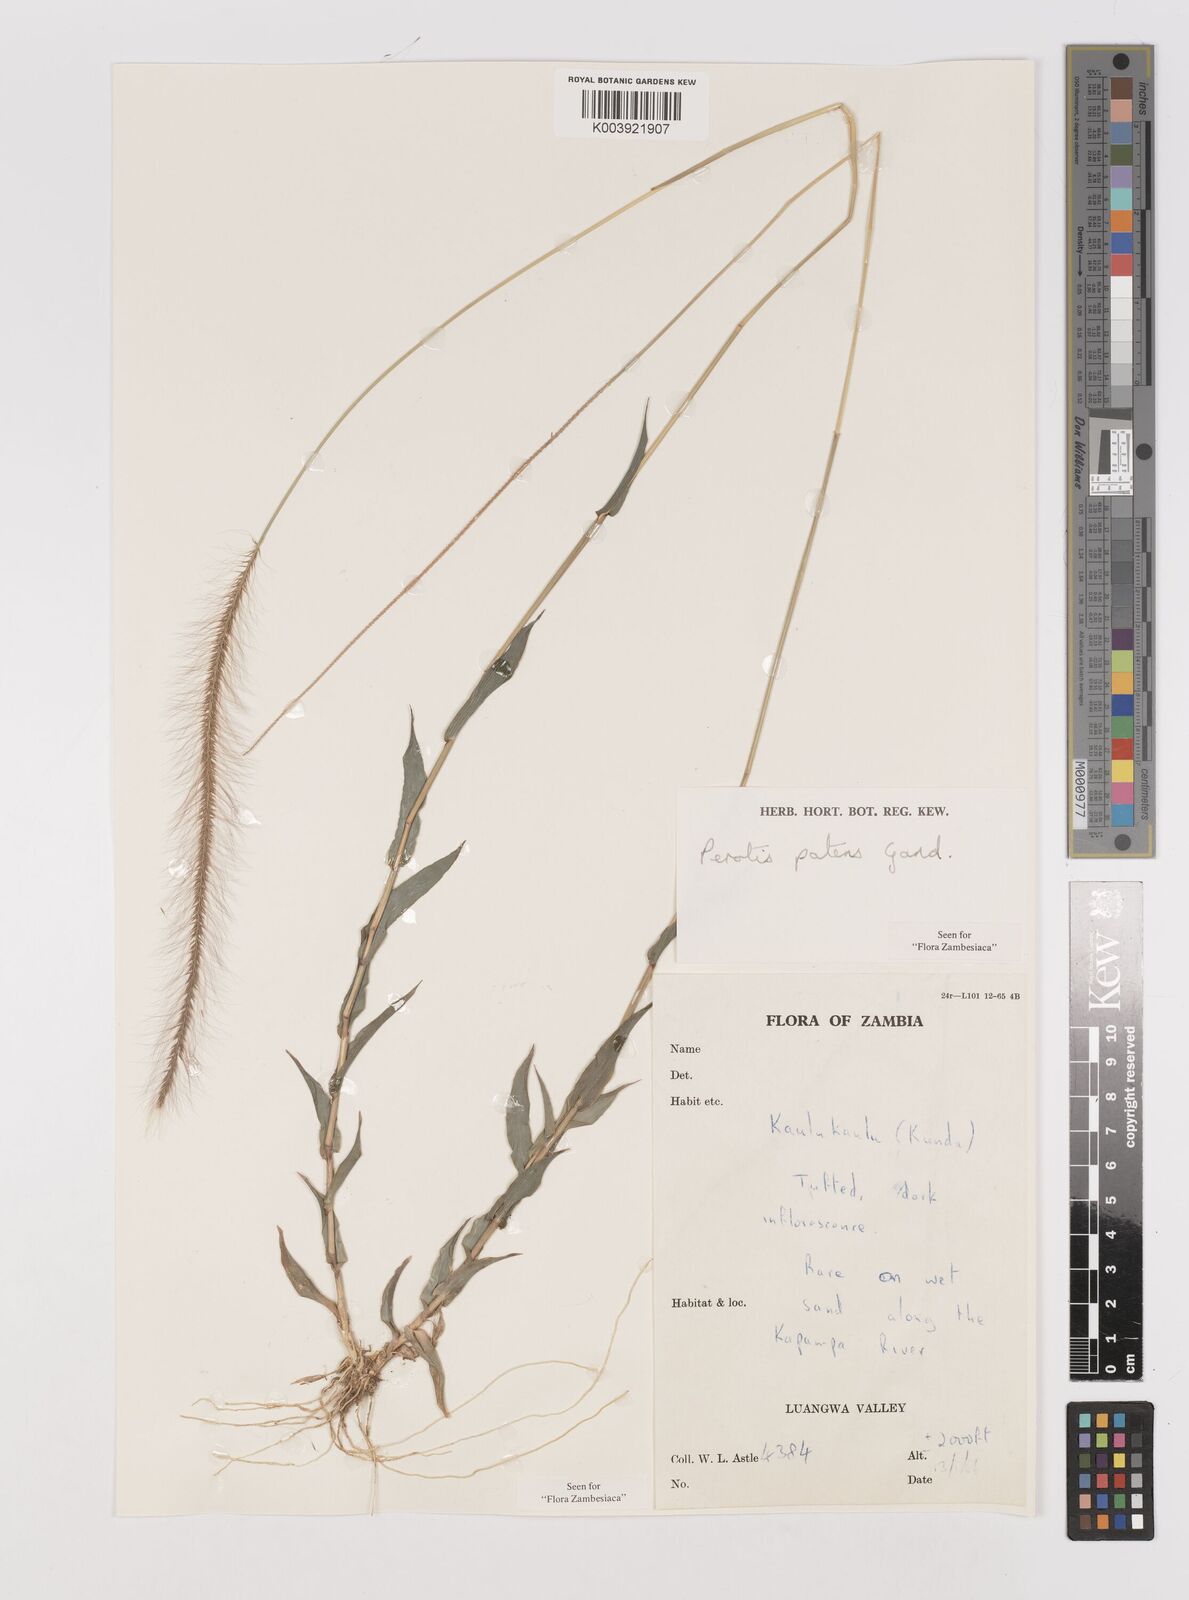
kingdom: Plantae
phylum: Tracheophyta
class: Liliopsida
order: Poales
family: Poaceae
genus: Perotis
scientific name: Perotis patens
